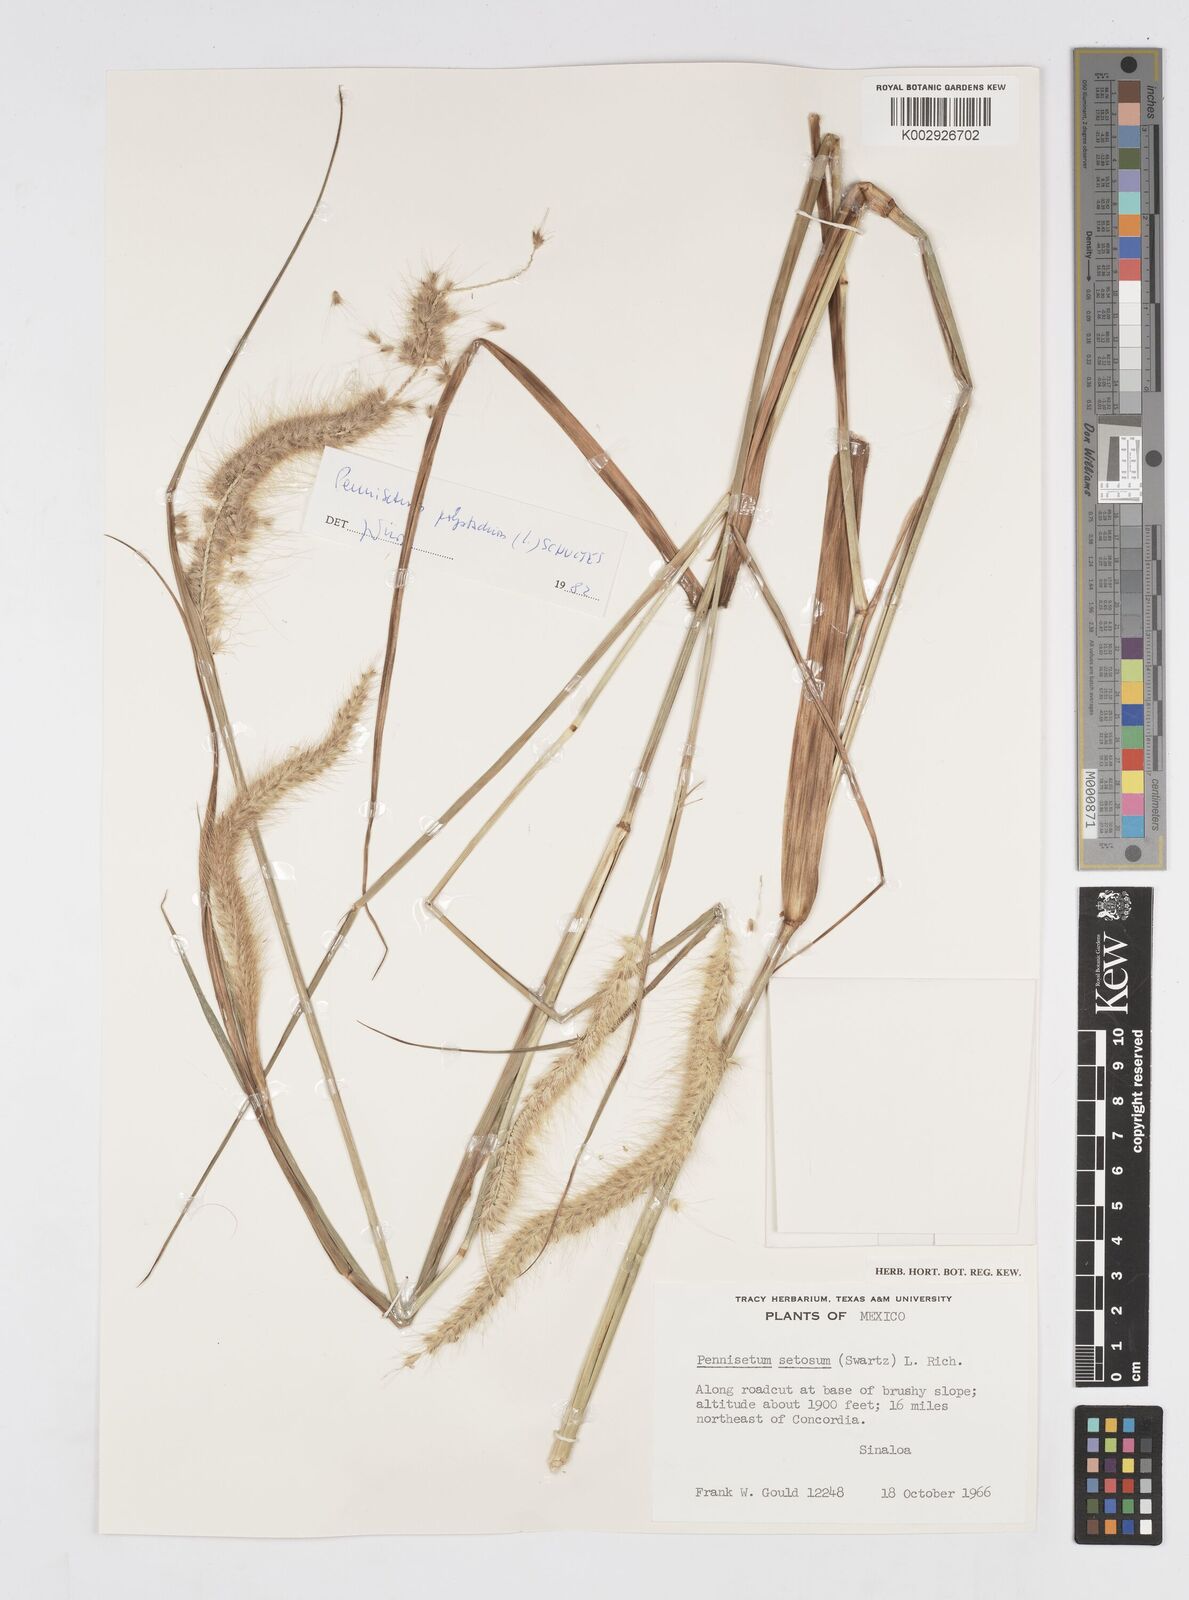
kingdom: Plantae
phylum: Tracheophyta
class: Liliopsida
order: Poales
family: Poaceae
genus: Cenchrus
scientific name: Cenchrus setosus
